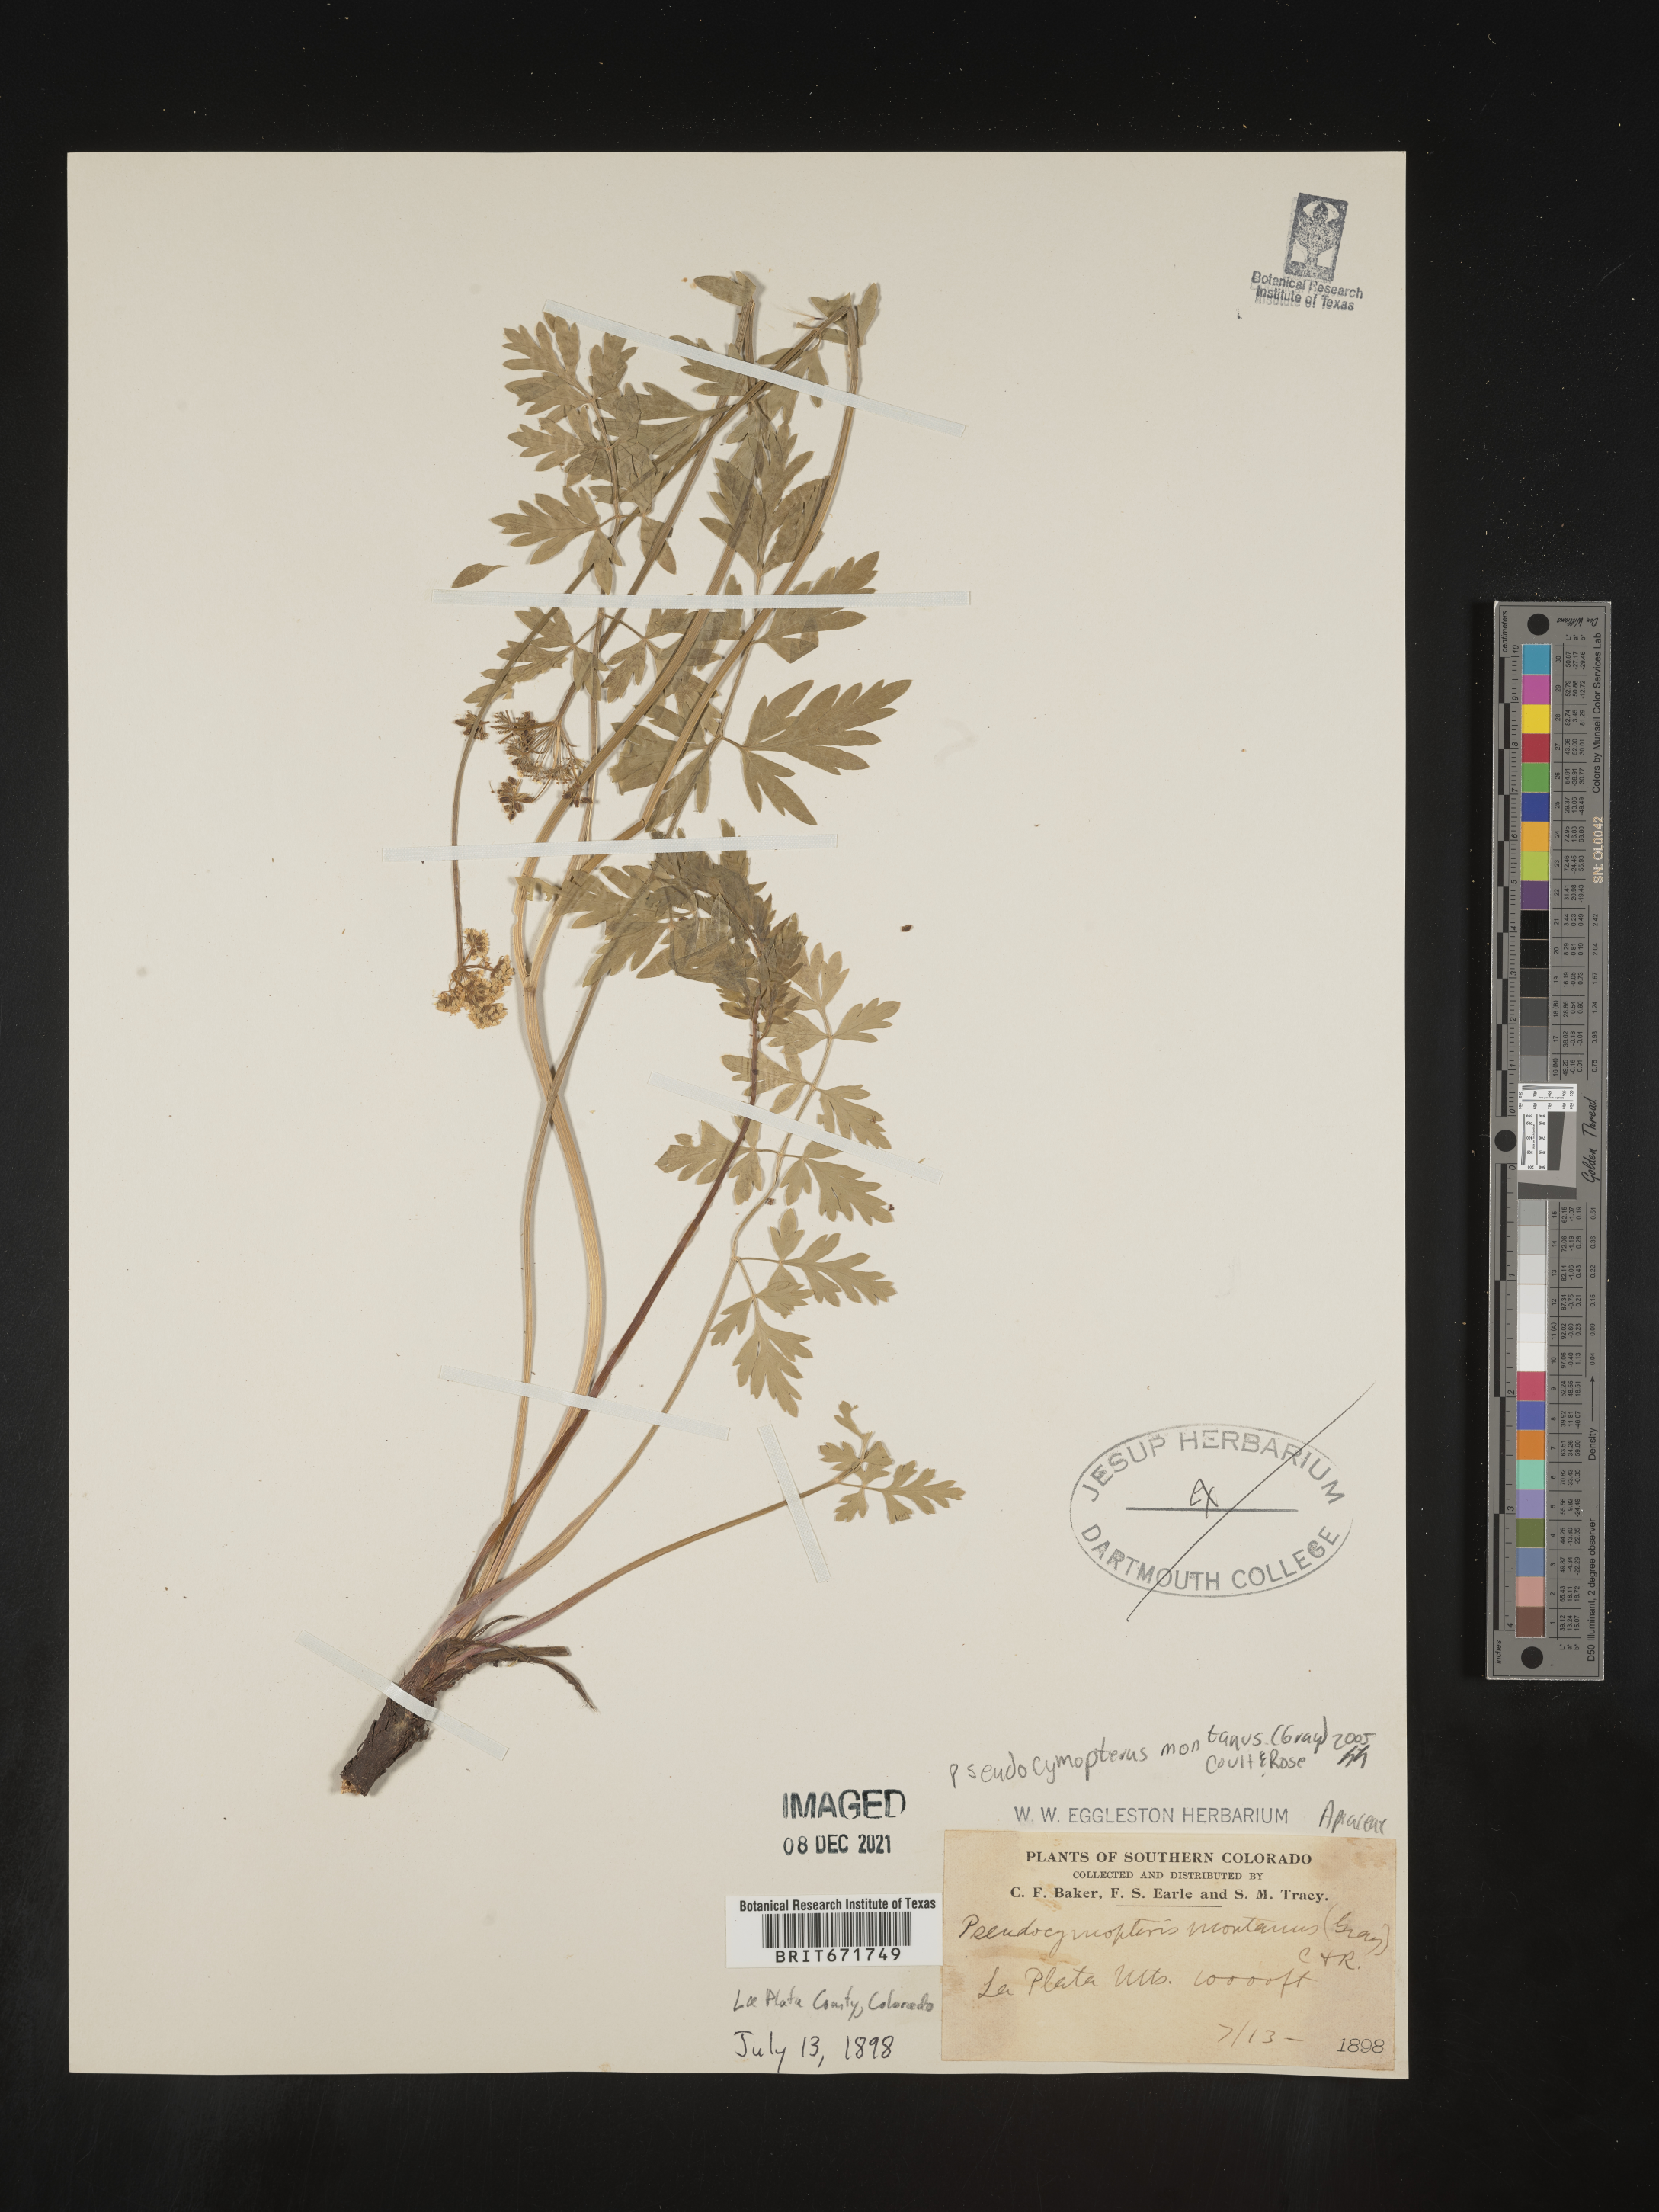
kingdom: Plantae
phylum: Tracheophyta
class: Magnoliopsida
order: Apiales
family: Apiaceae
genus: Cymopterus
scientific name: Cymopterus lemmonii
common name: Lemmon's spring-parsley
